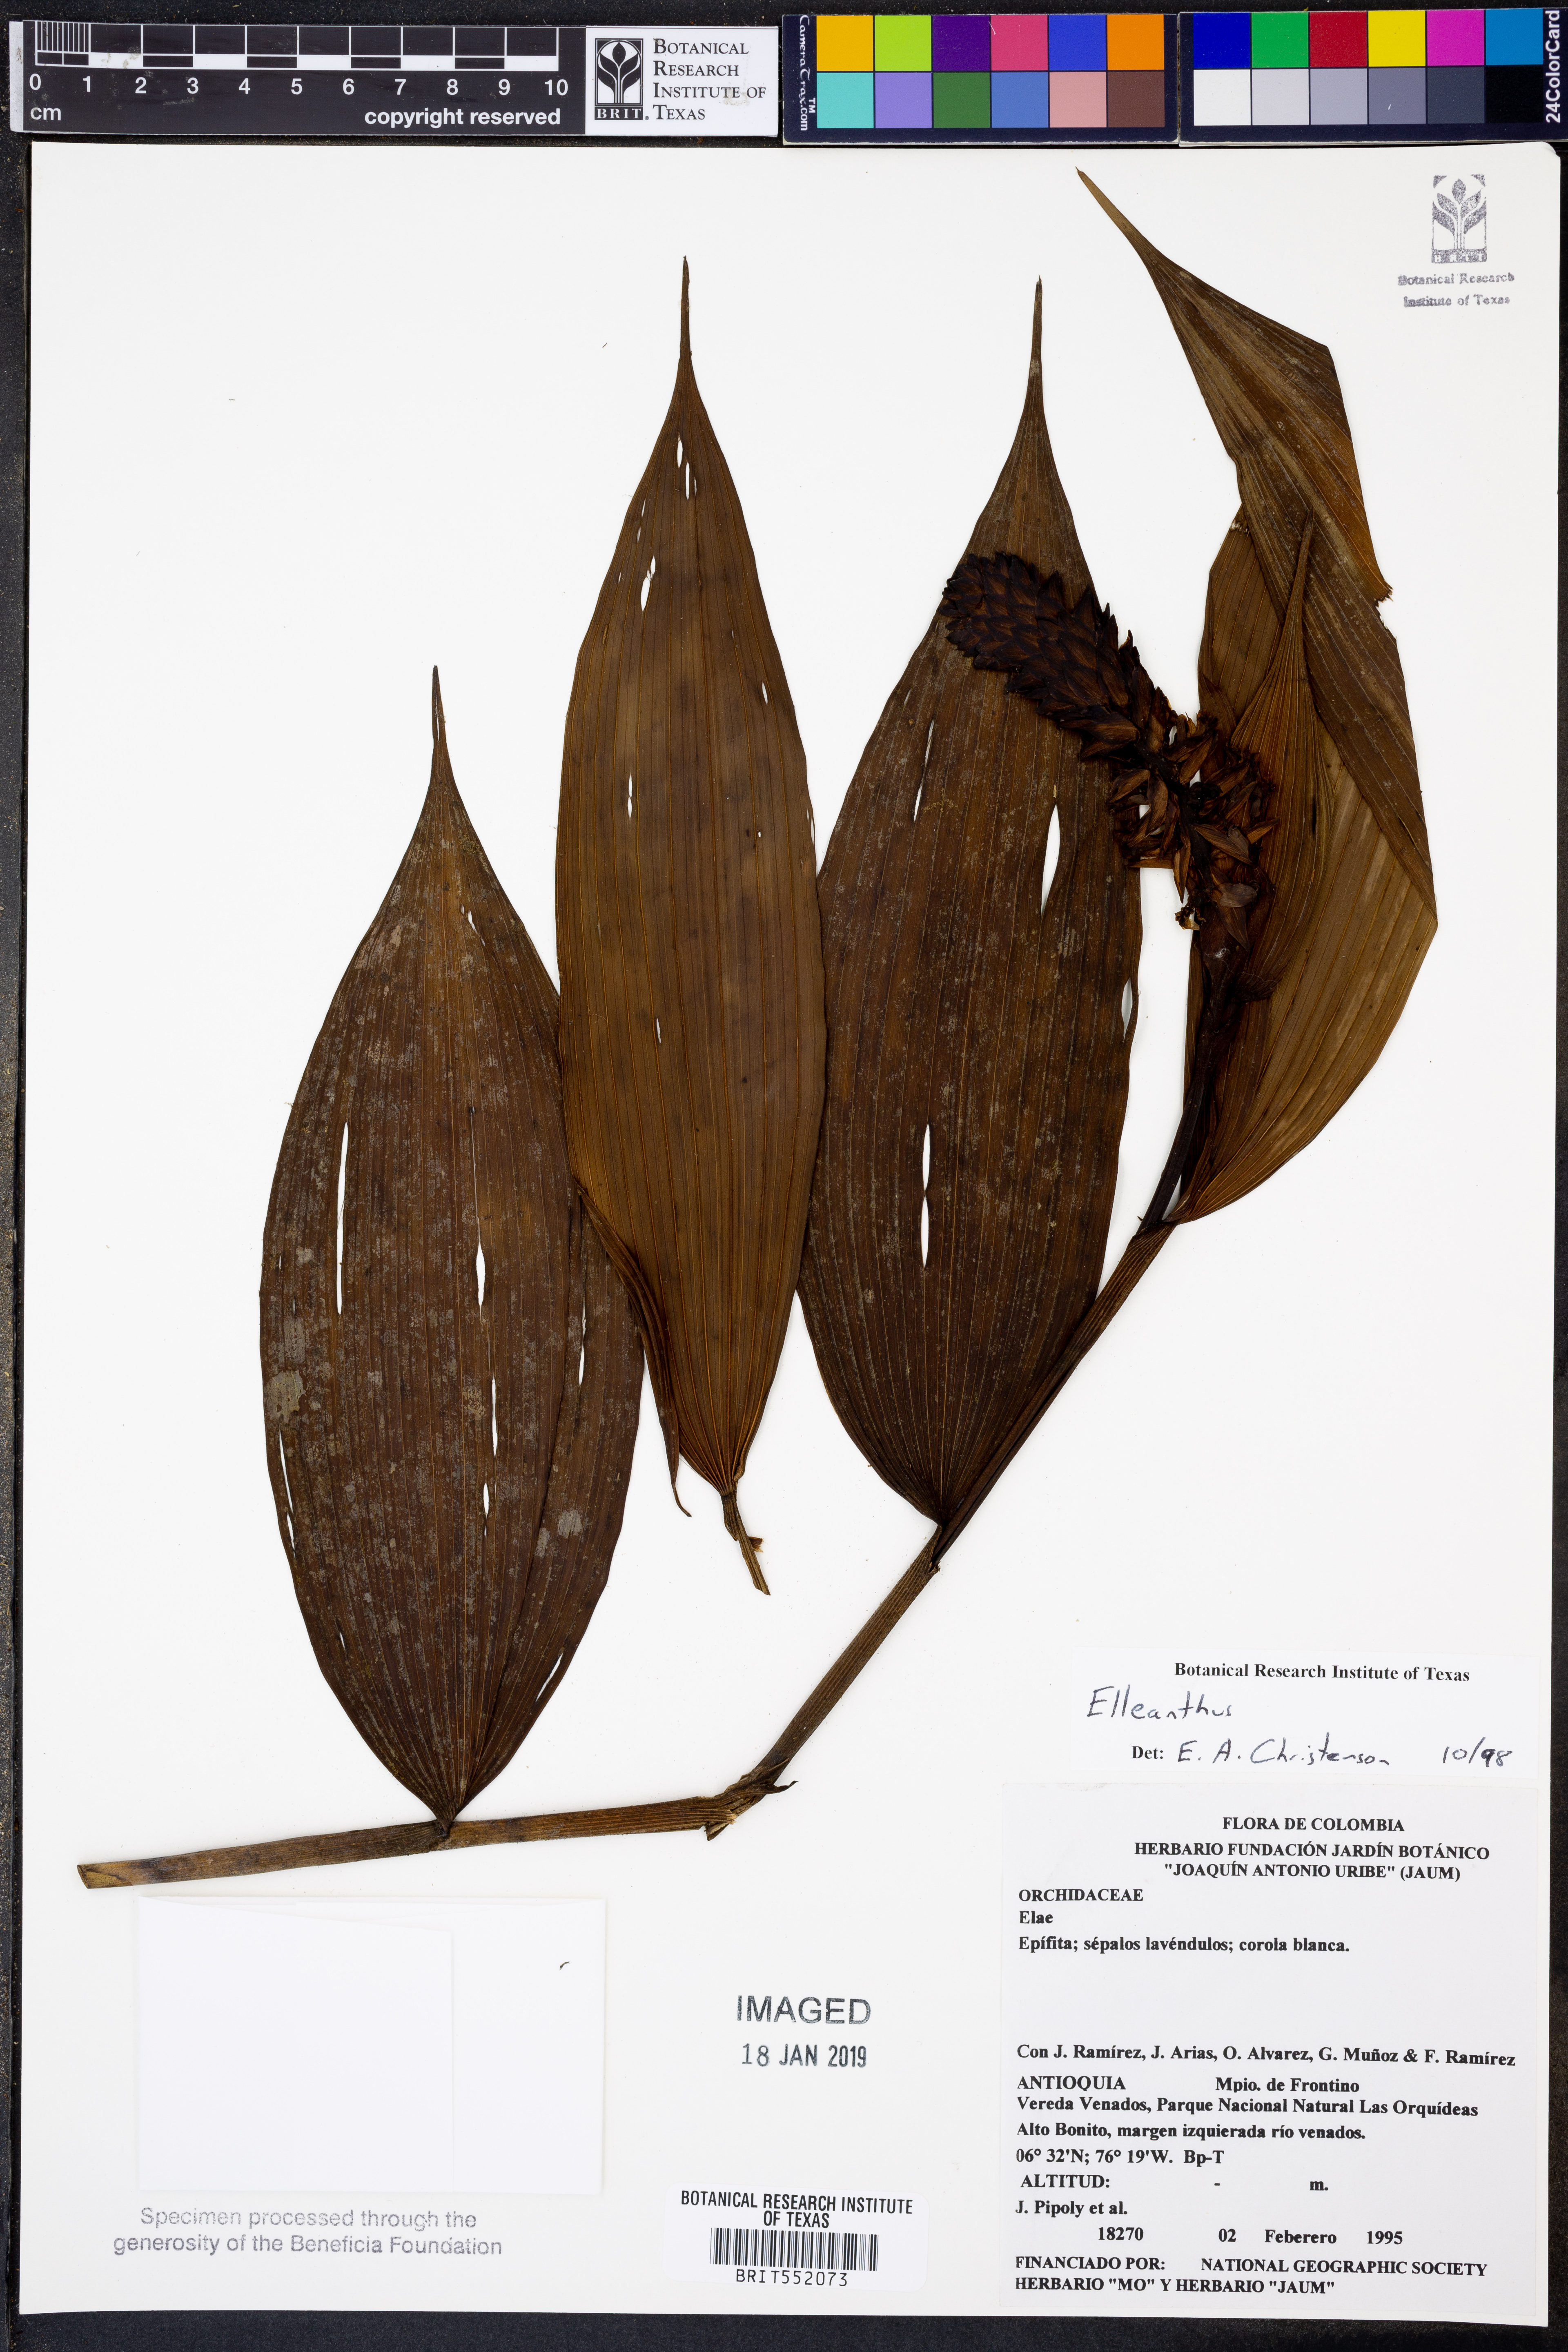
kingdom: Plantae
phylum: Tracheophyta
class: Liliopsida
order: Asparagales
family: Orchidaceae
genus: Elleanthus
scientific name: Elleanthus
